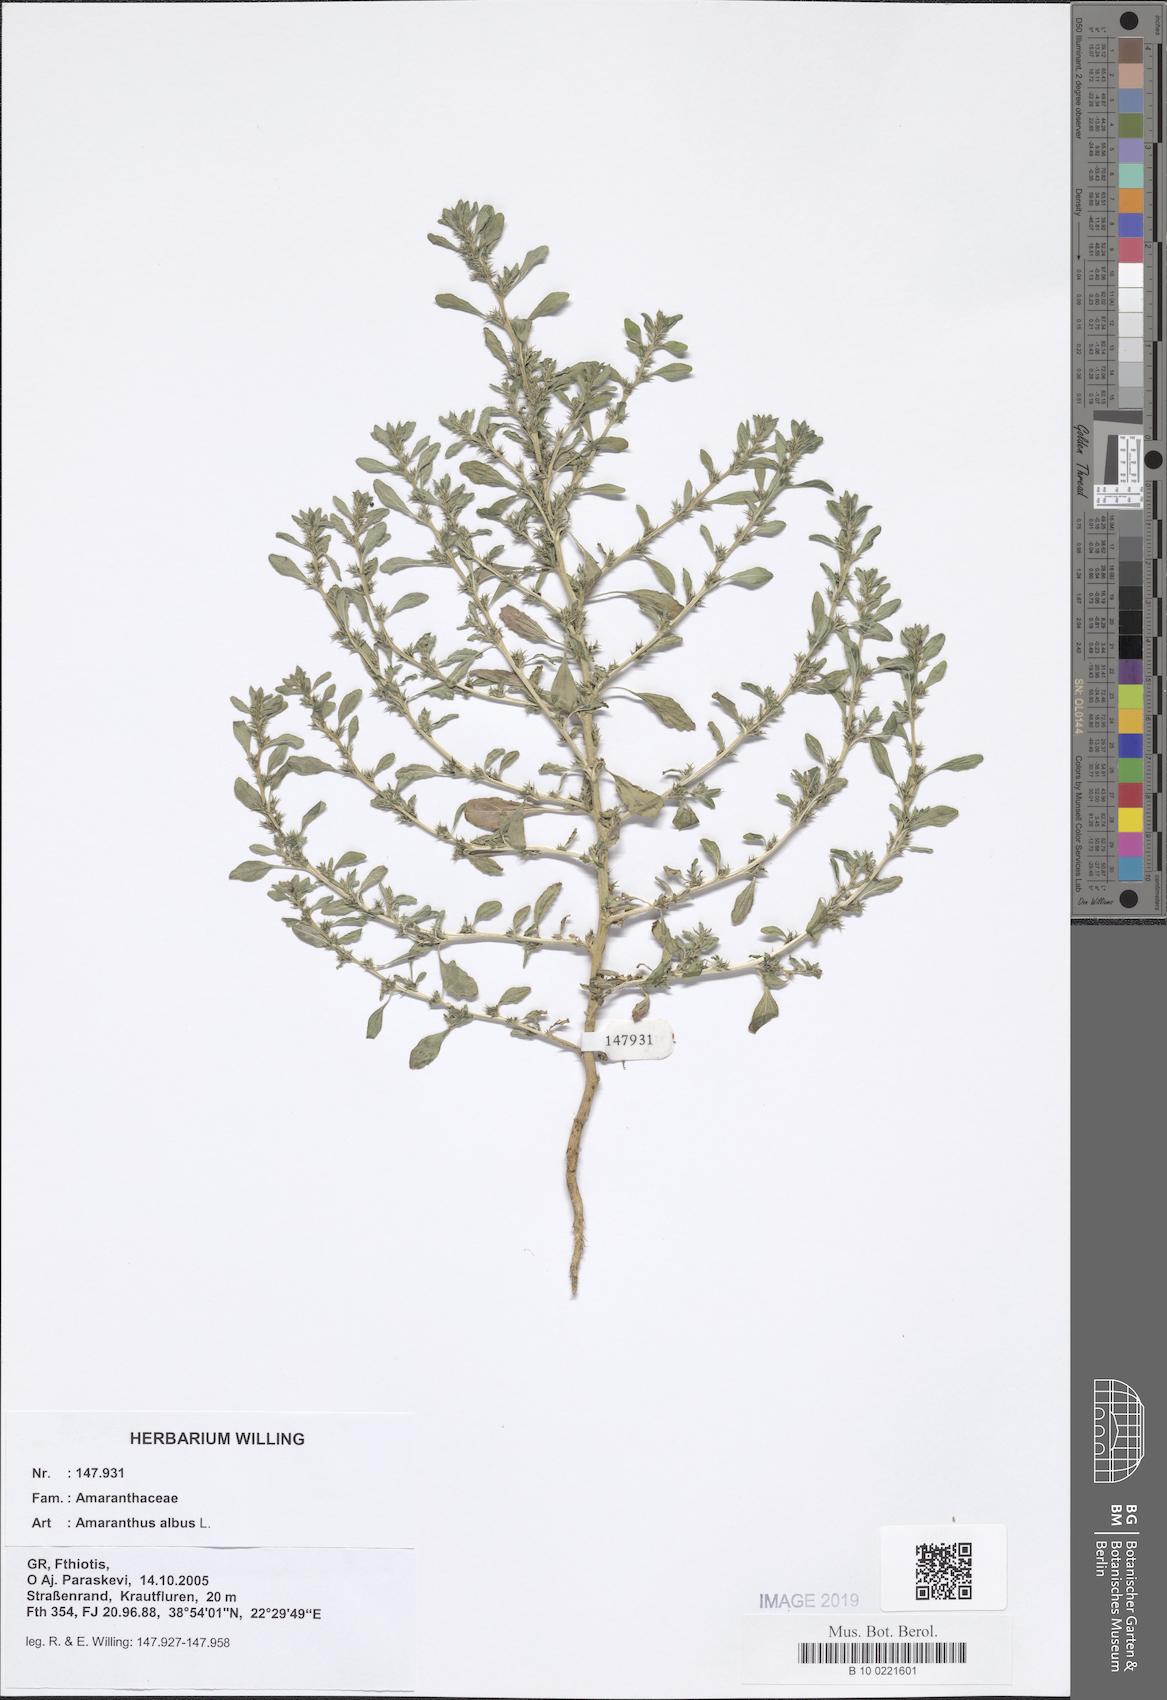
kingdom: Plantae
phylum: Tracheophyta
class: Magnoliopsida
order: Caryophyllales
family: Amaranthaceae
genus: Amaranthus
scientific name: Amaranthus albus
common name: White pigweed
